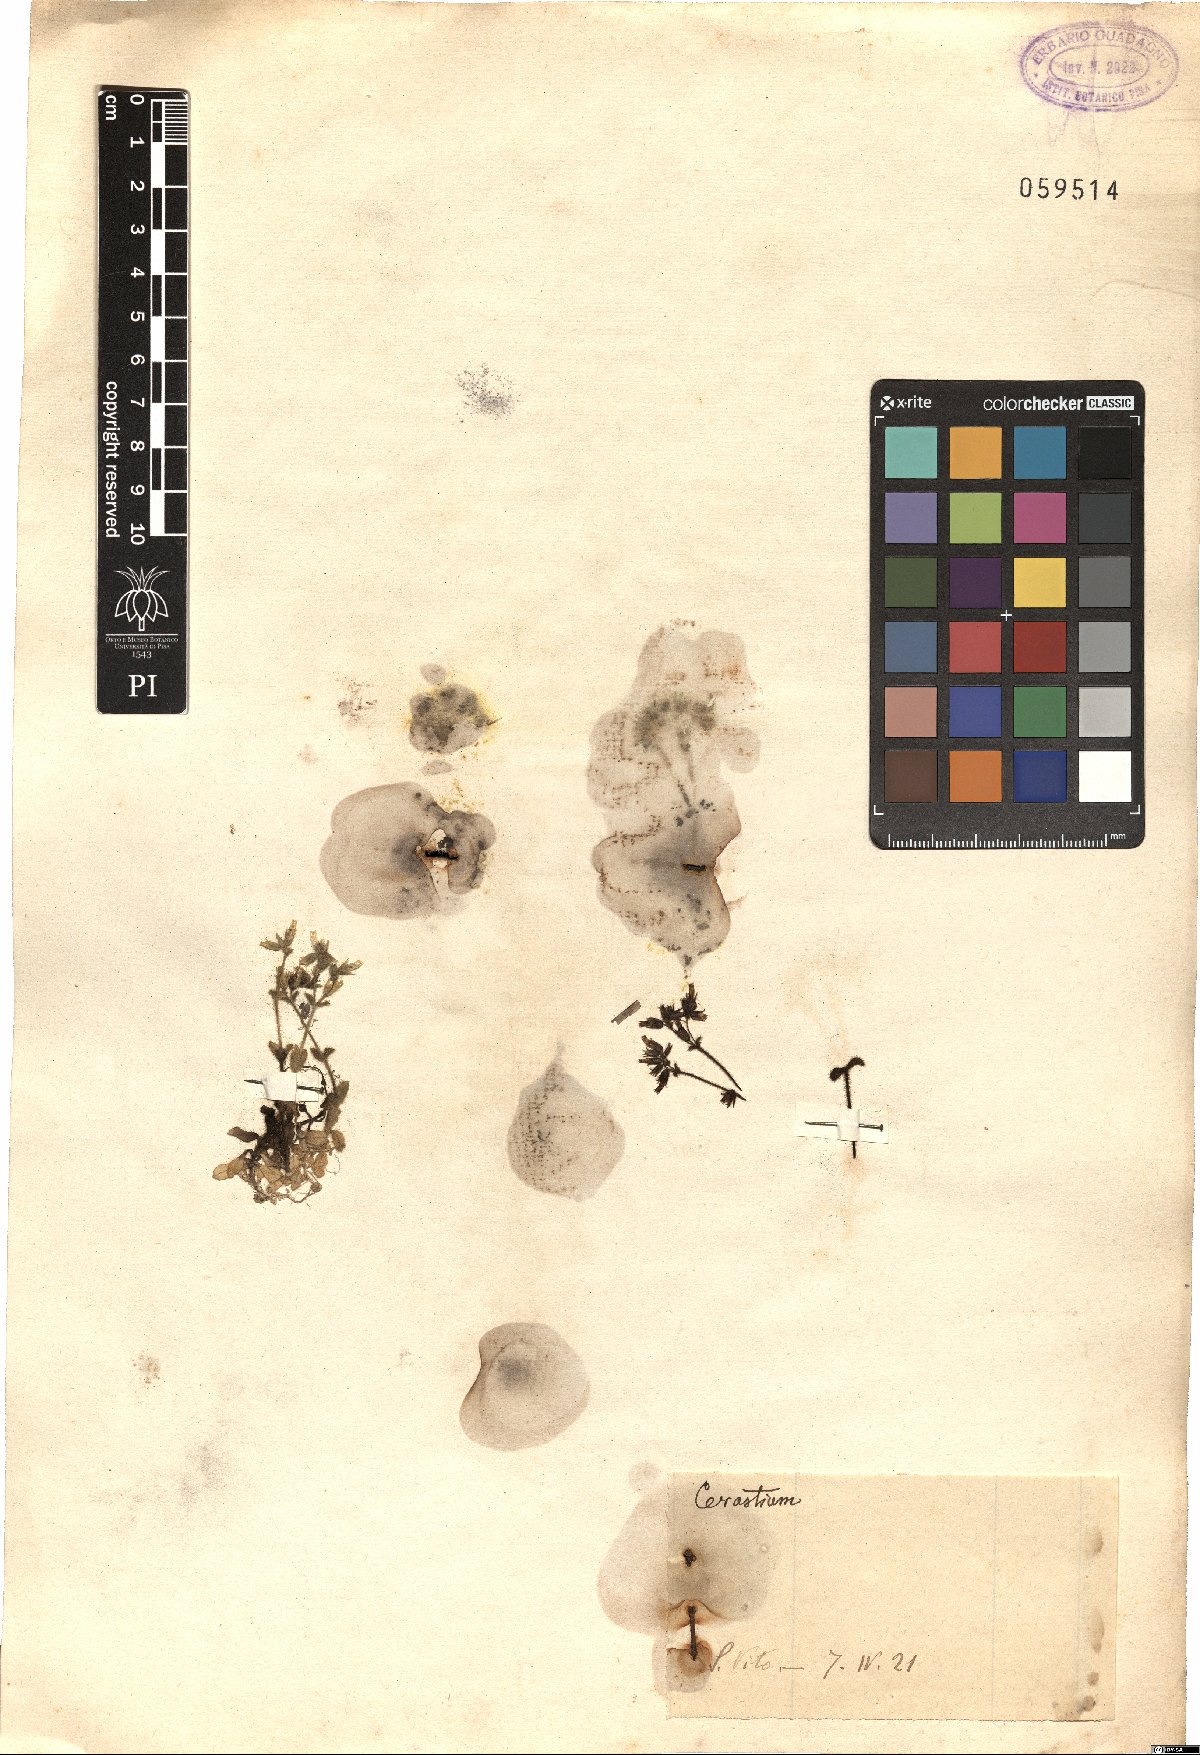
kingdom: Plantae
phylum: Tracheophyta
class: Magnoliopsida
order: Caryophyllales
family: Caryophyllaceae
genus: Cerastium
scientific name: Cerastium
